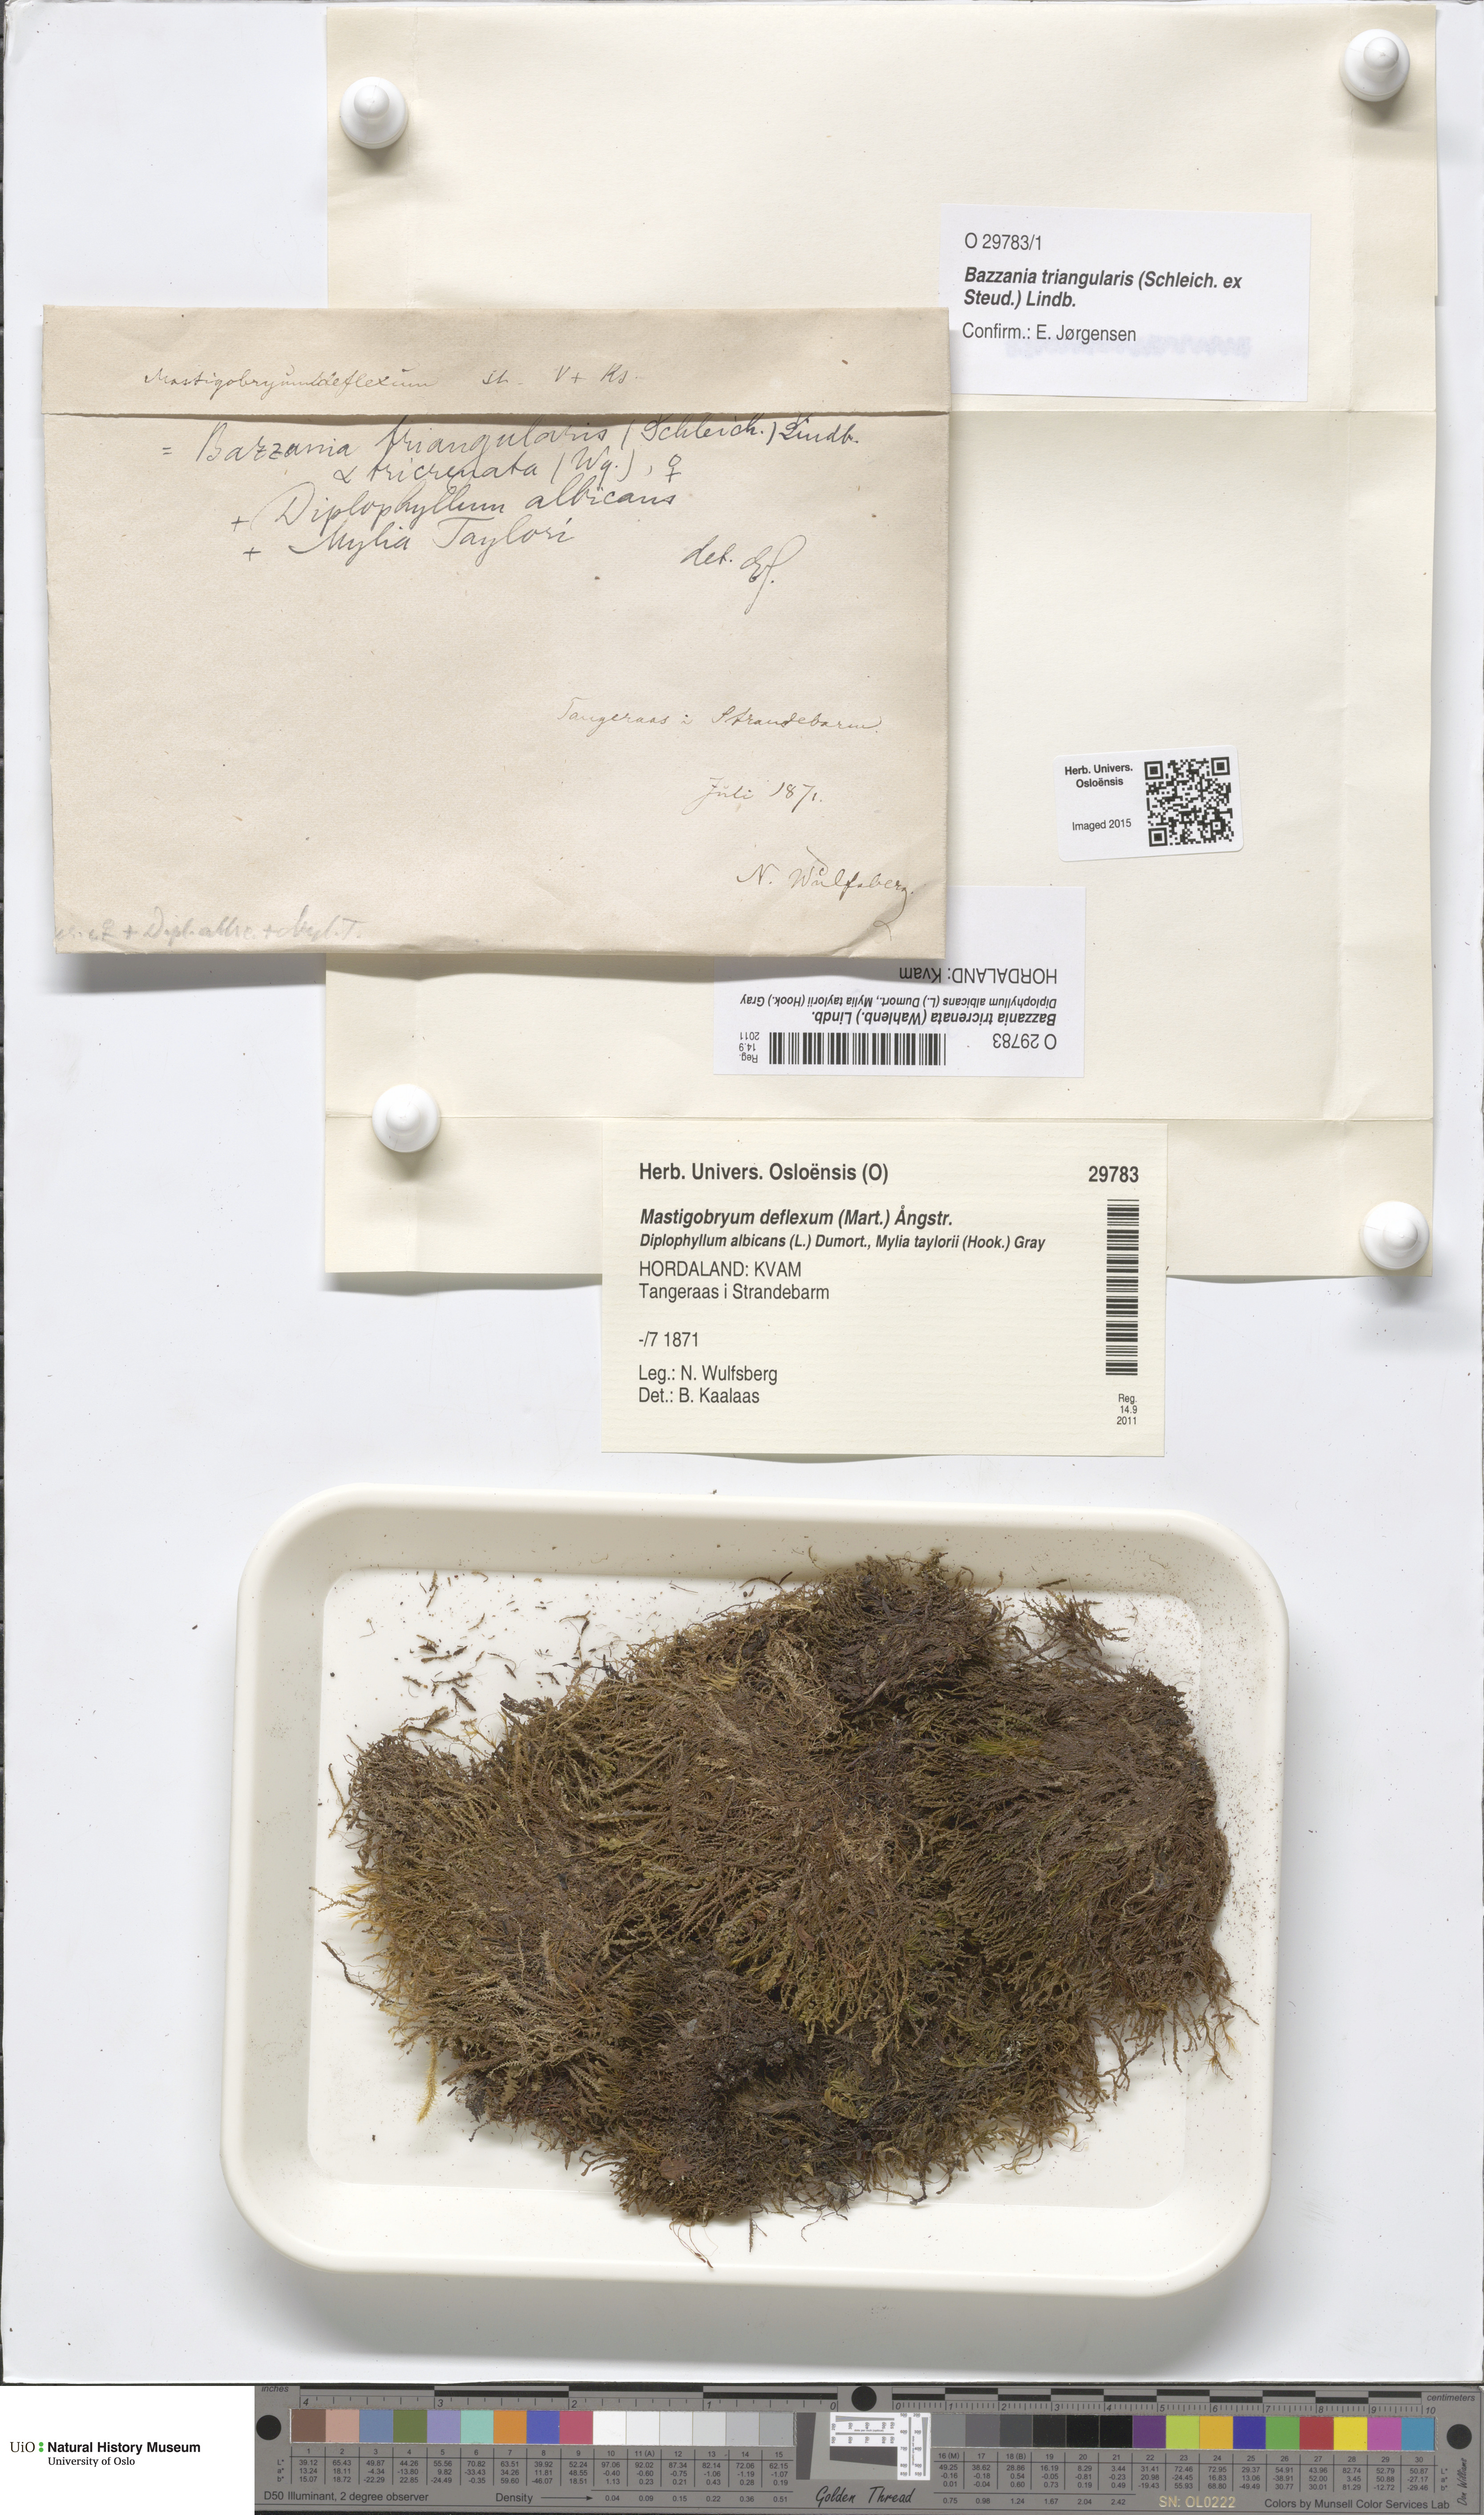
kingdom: Plantae
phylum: Marchantiophyta
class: Jungermanniopsida
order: Jungermanniales
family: Lepidoziaceae
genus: Bazzania
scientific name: Bazzania tricrenata
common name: Lesser whipwort
